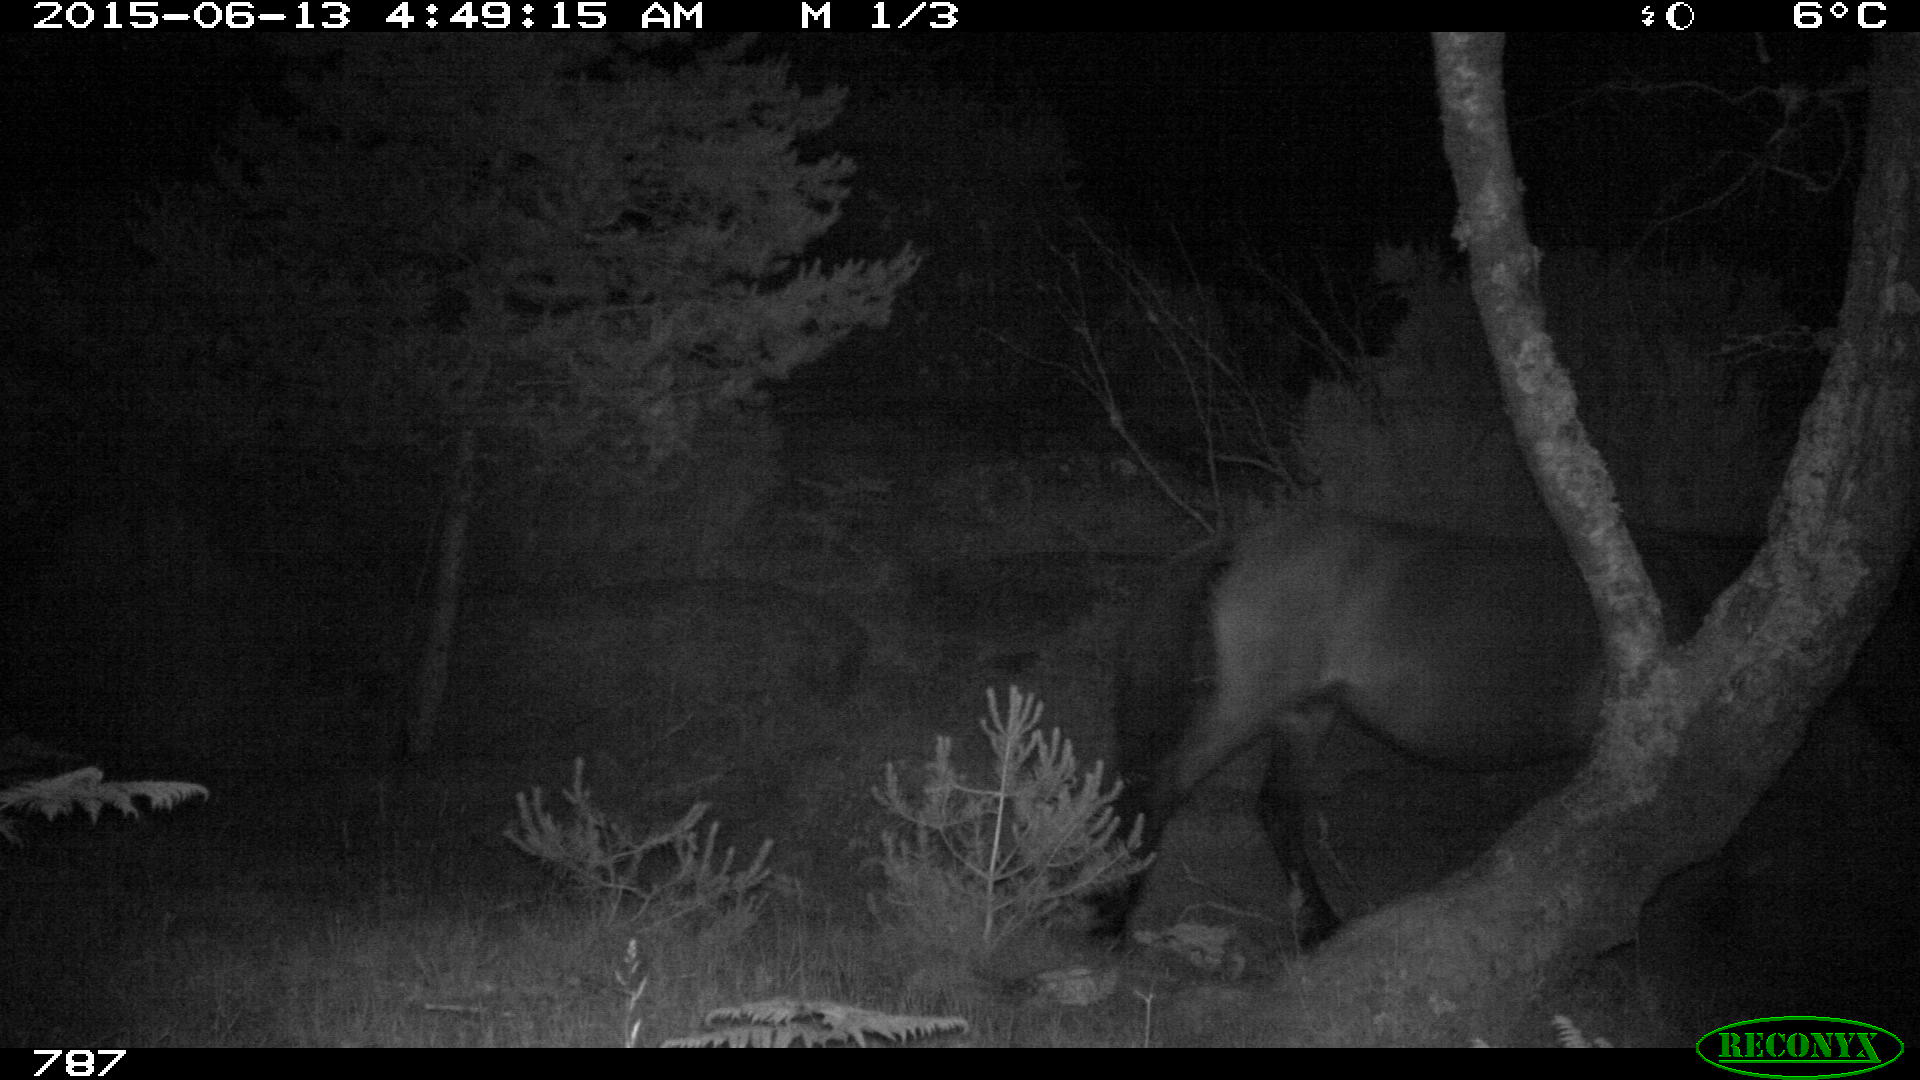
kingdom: Animalia
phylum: Chordata
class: Mammalia
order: Perissodactyla
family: Equidae
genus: Equus
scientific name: Equus caballus
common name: Horse
